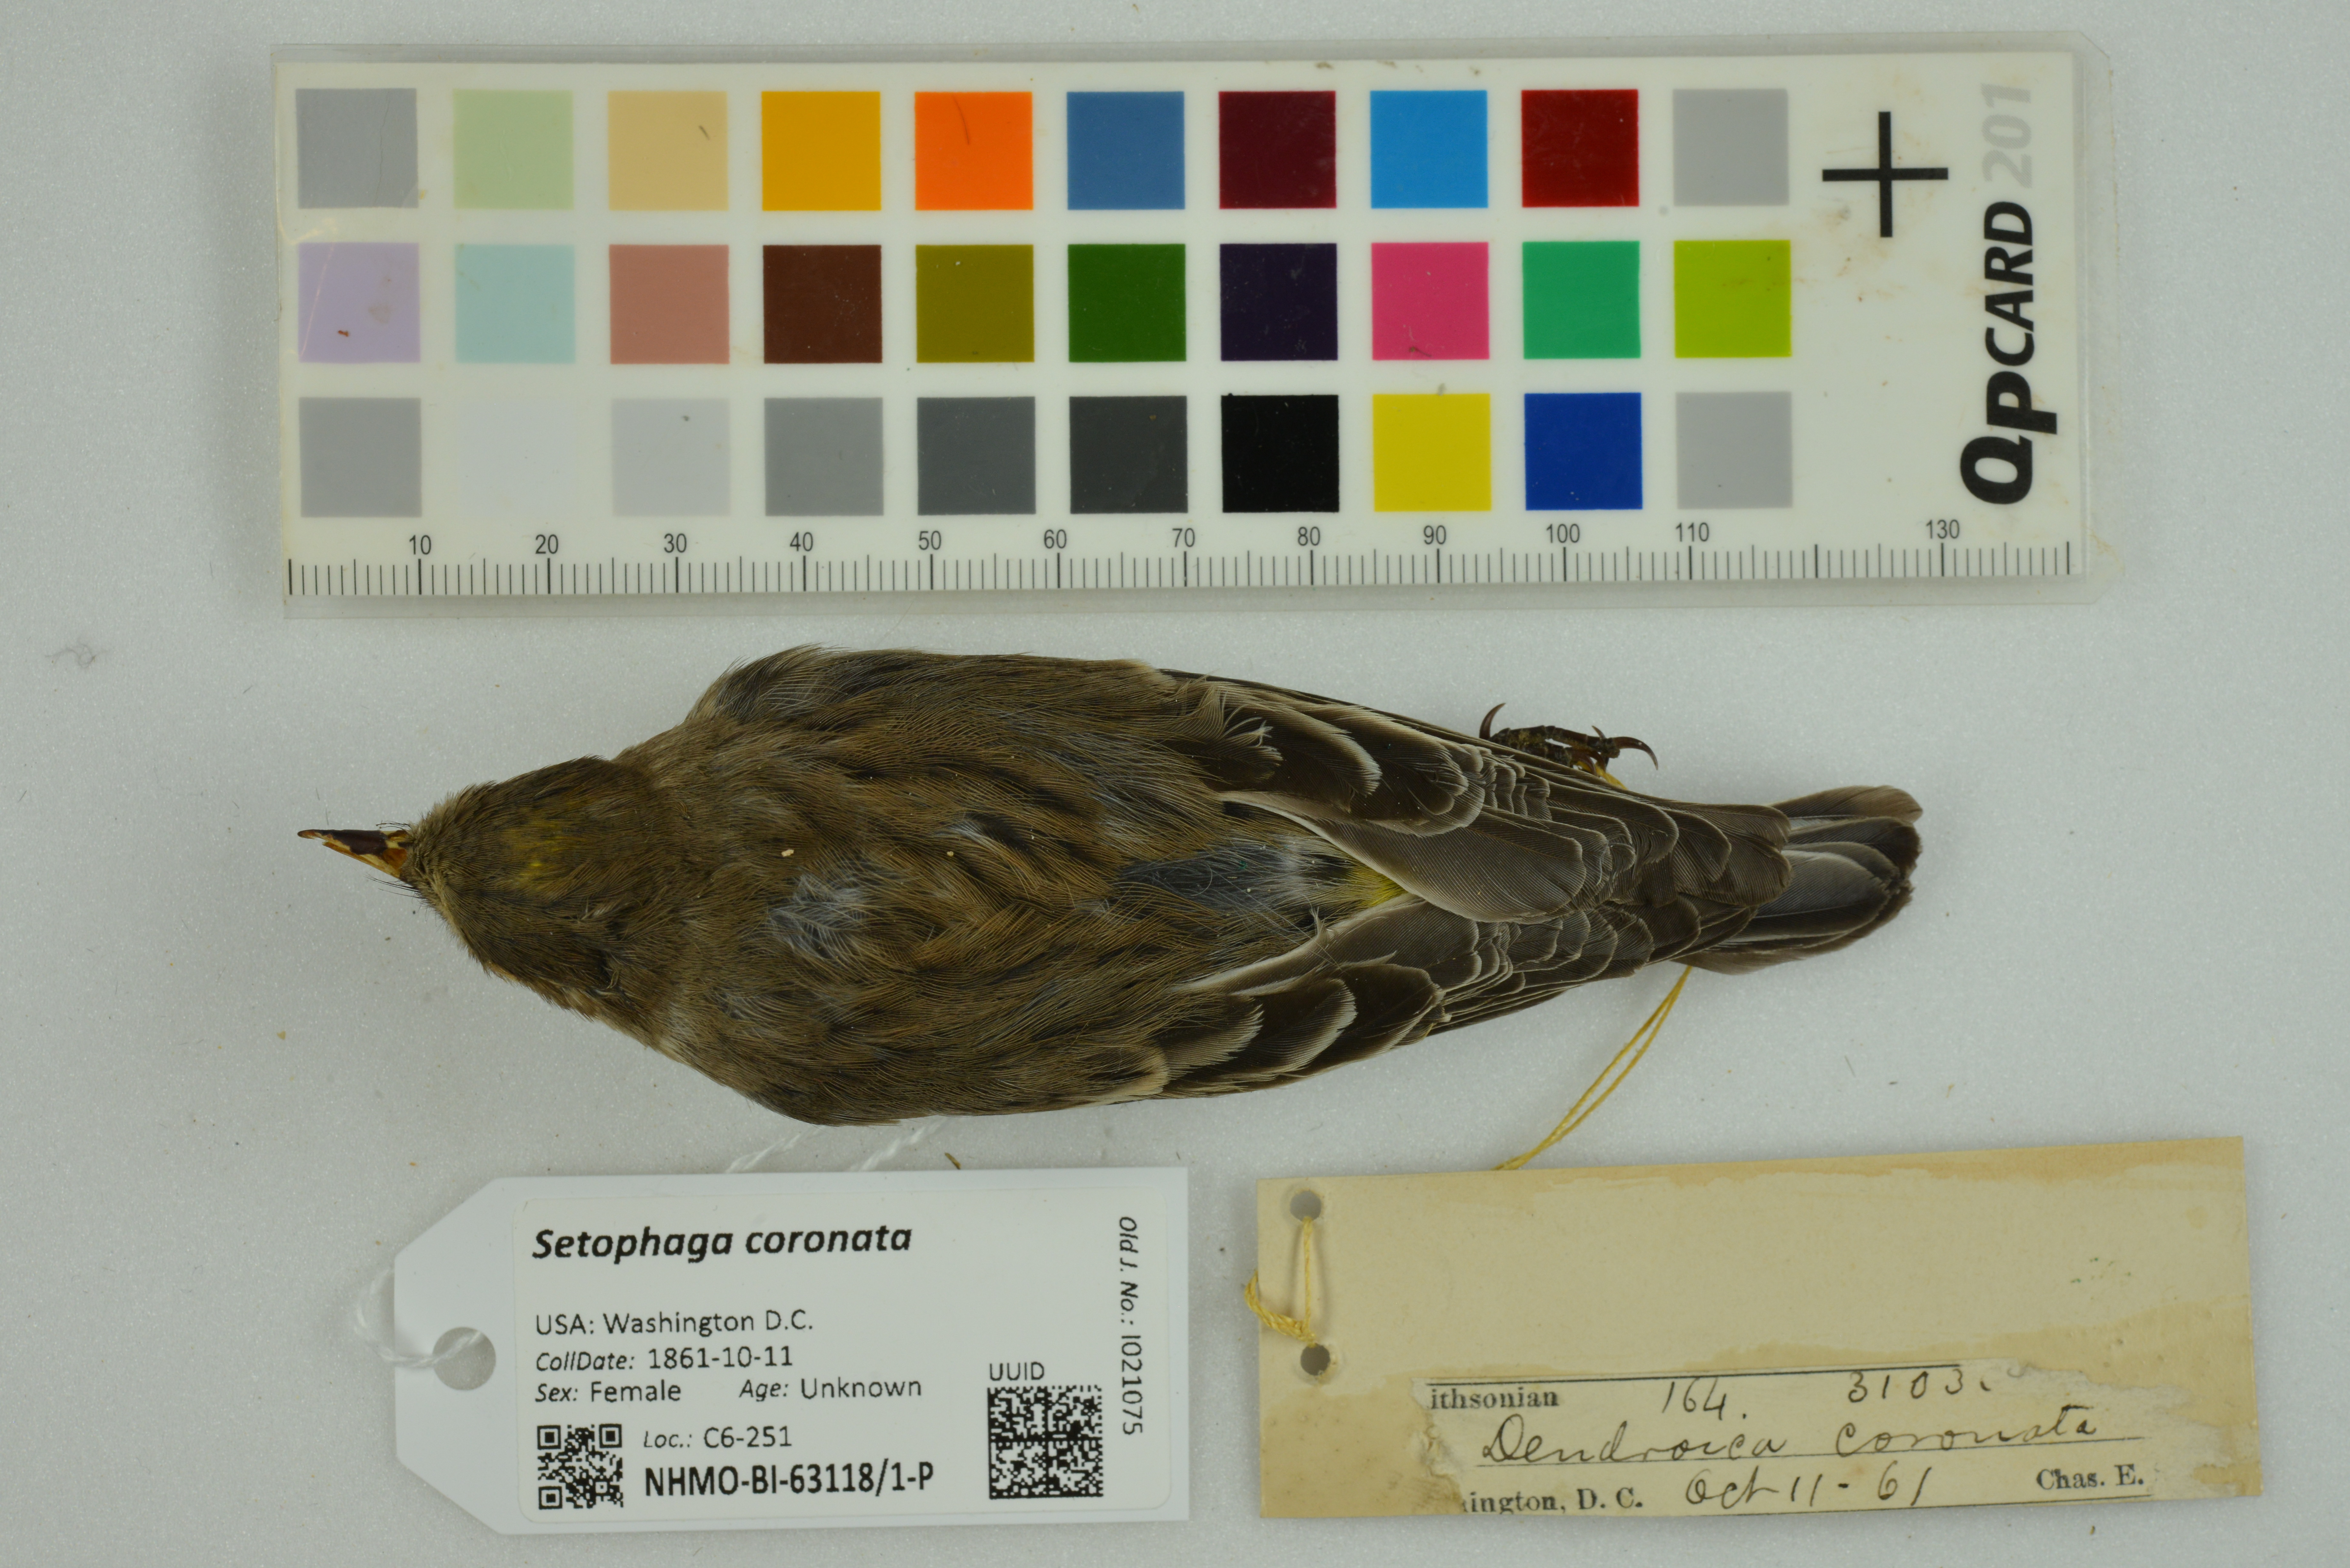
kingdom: Animalia
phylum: Chordata
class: Aves
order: Passeriformes
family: Parulidae
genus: Setophaga
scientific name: Setophaga coronata
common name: Myrtle warbler
